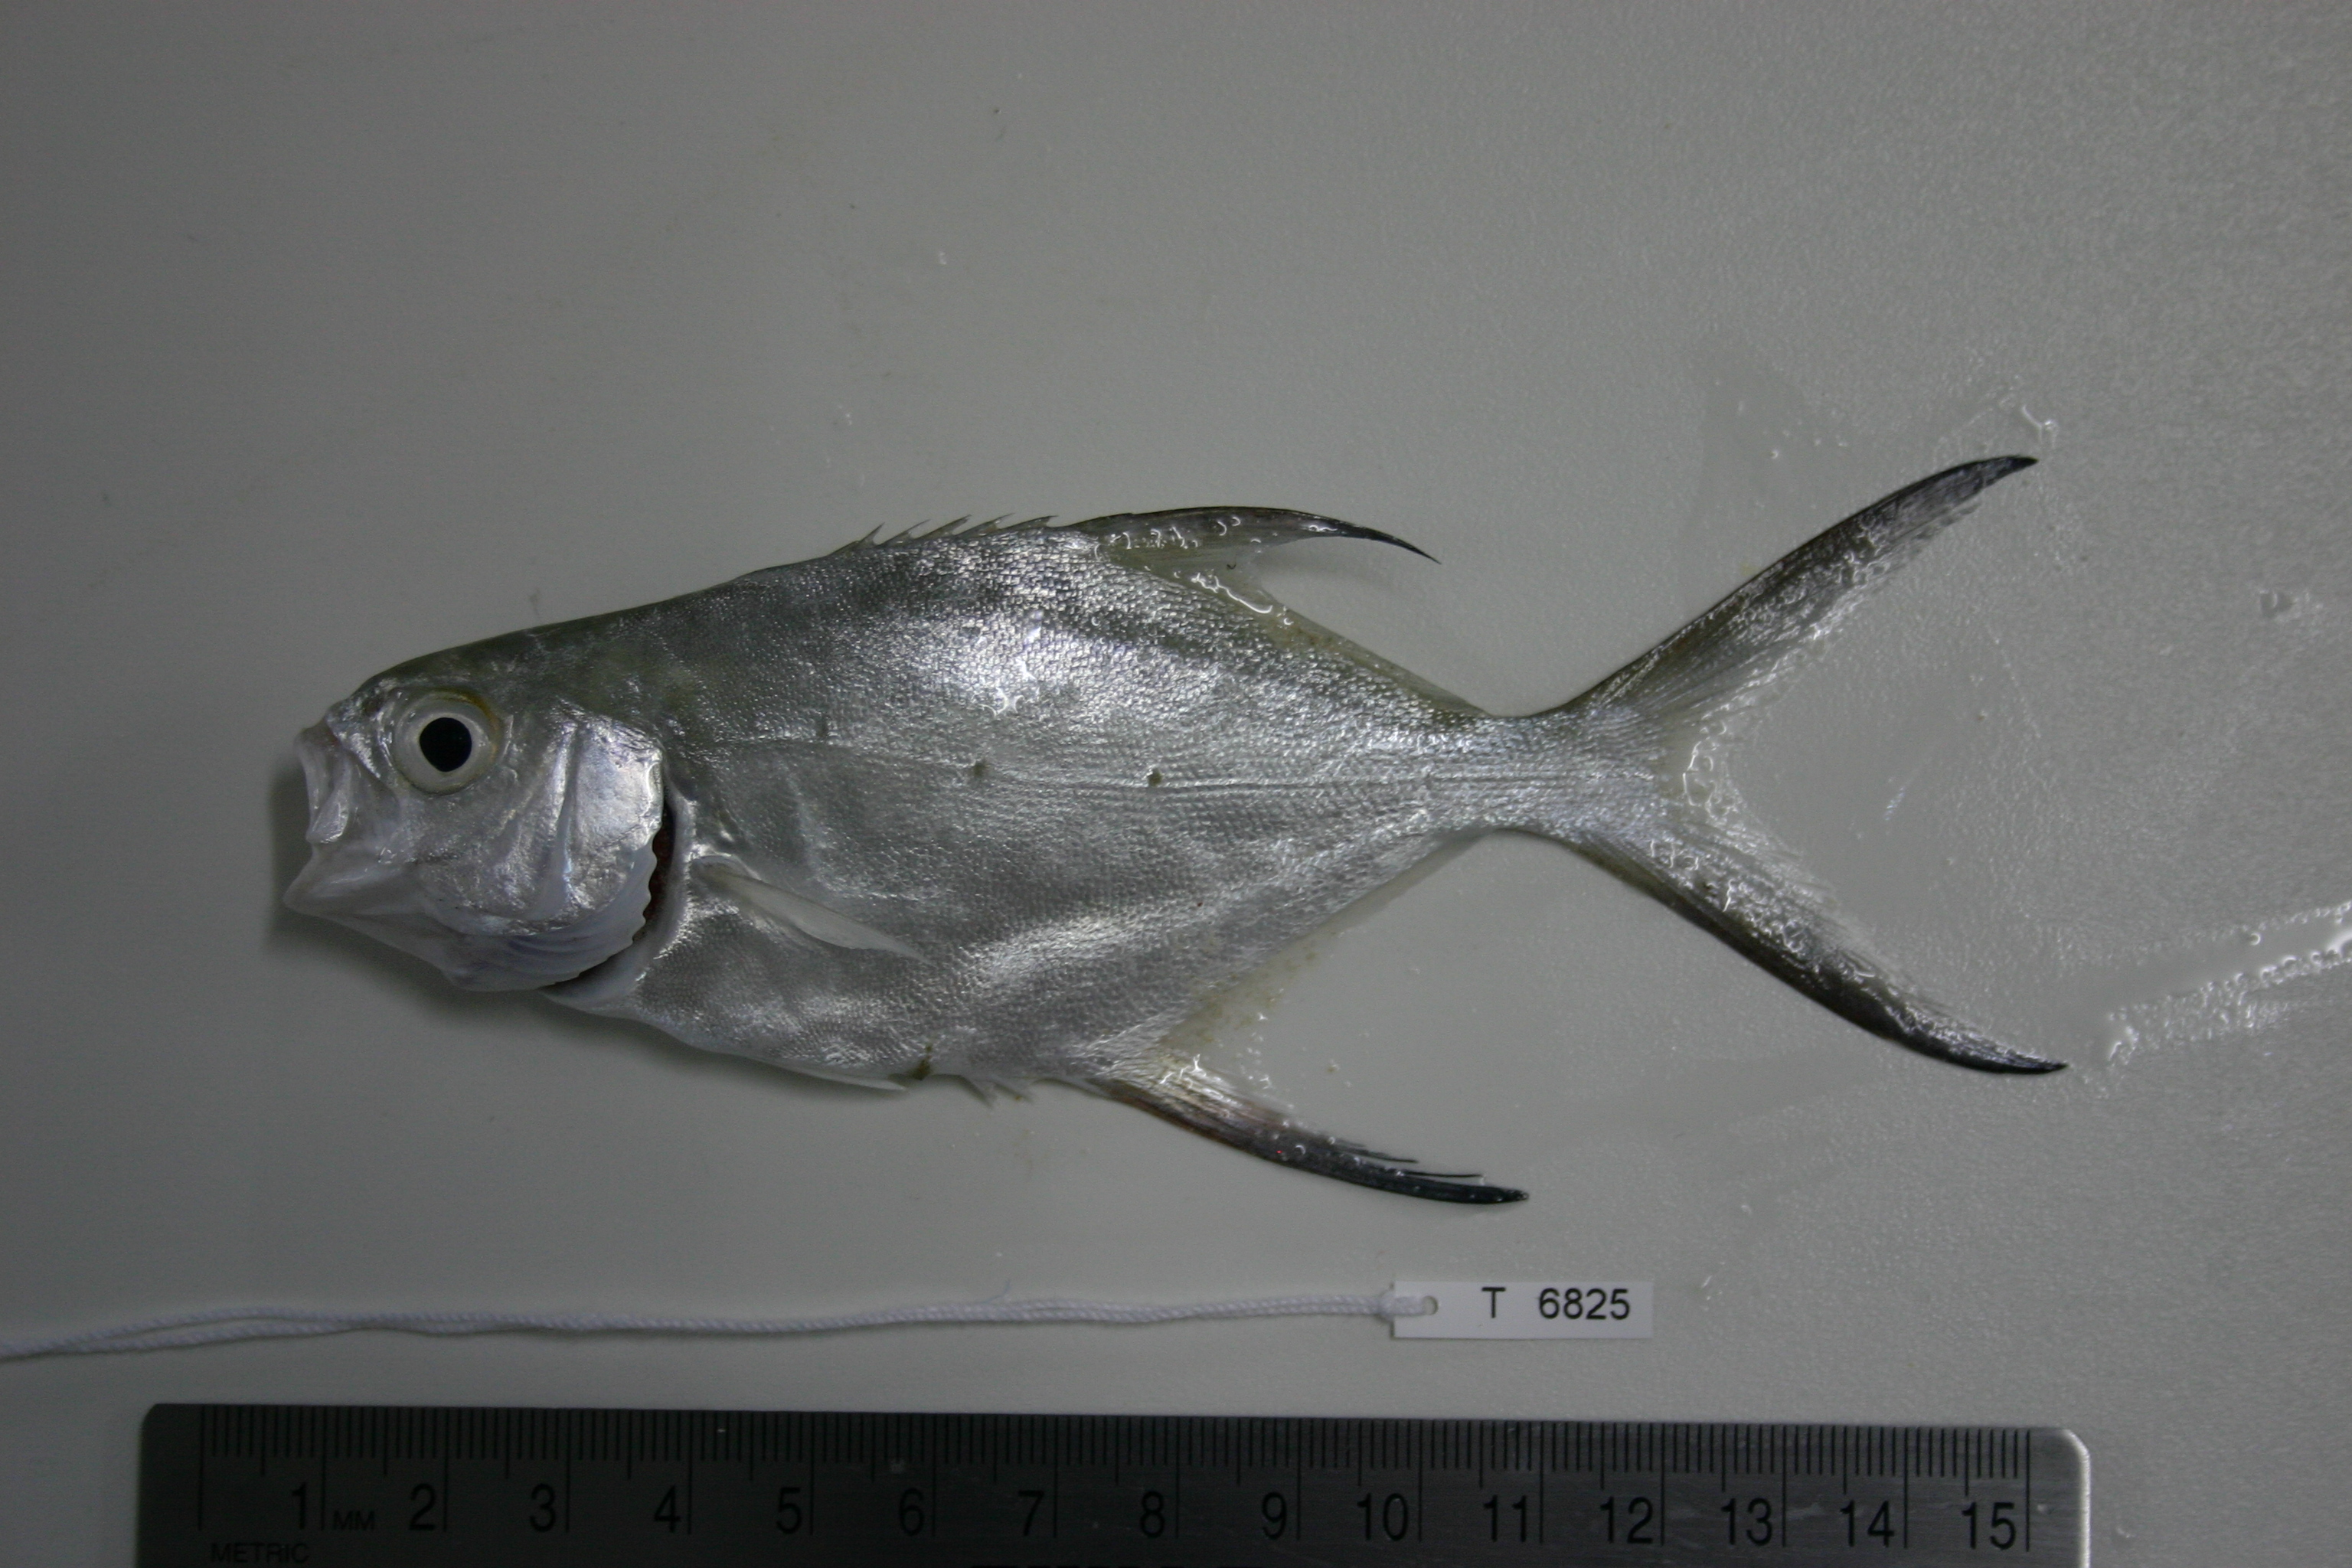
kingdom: Animalia
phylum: Chordata
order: Perciformes
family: Carangidae
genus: Trachinotus
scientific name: Trachinotus baillonii
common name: Smallspotted dart
